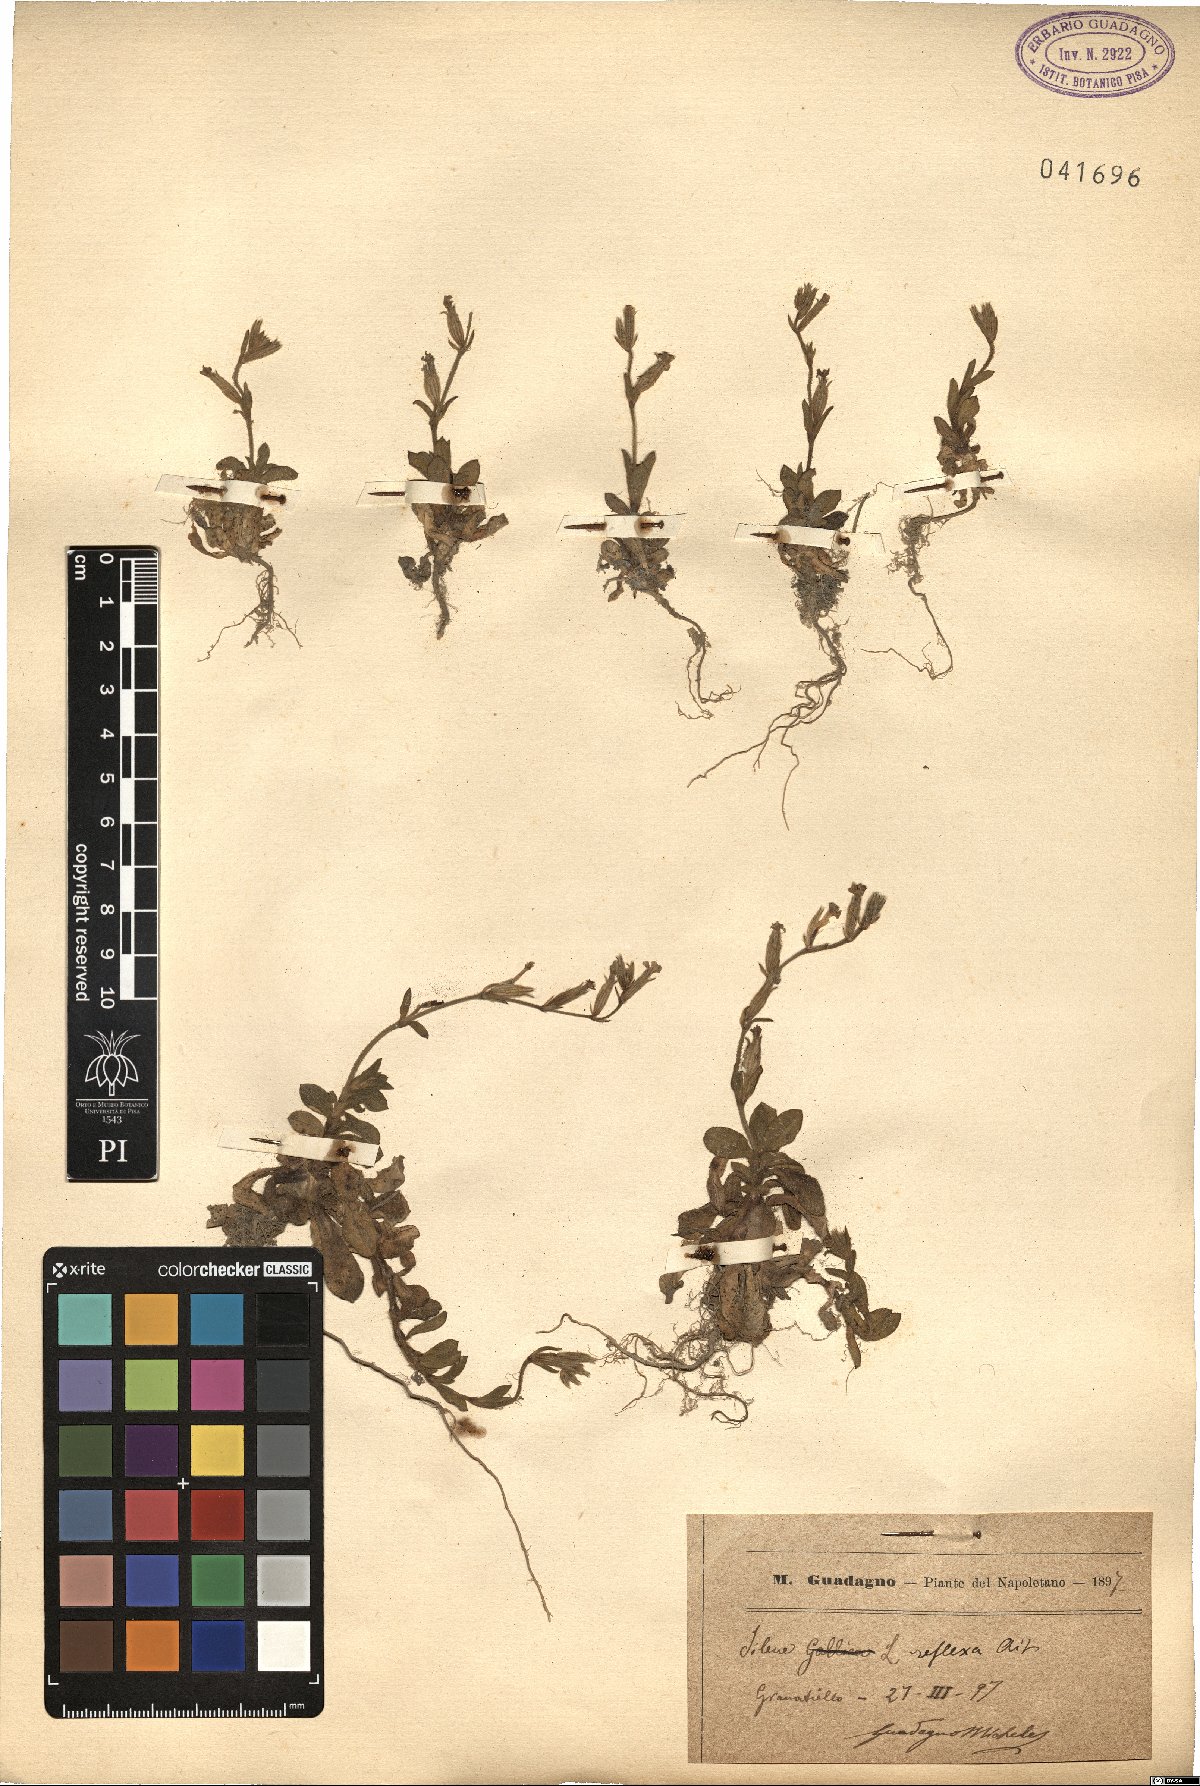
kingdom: Plantae
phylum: Tracheophyta
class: Magnoliopsida
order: Caryophyllales
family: Caryophyllaceae
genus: Silene
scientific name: Silene gallica
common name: Small-flowered catchfly
